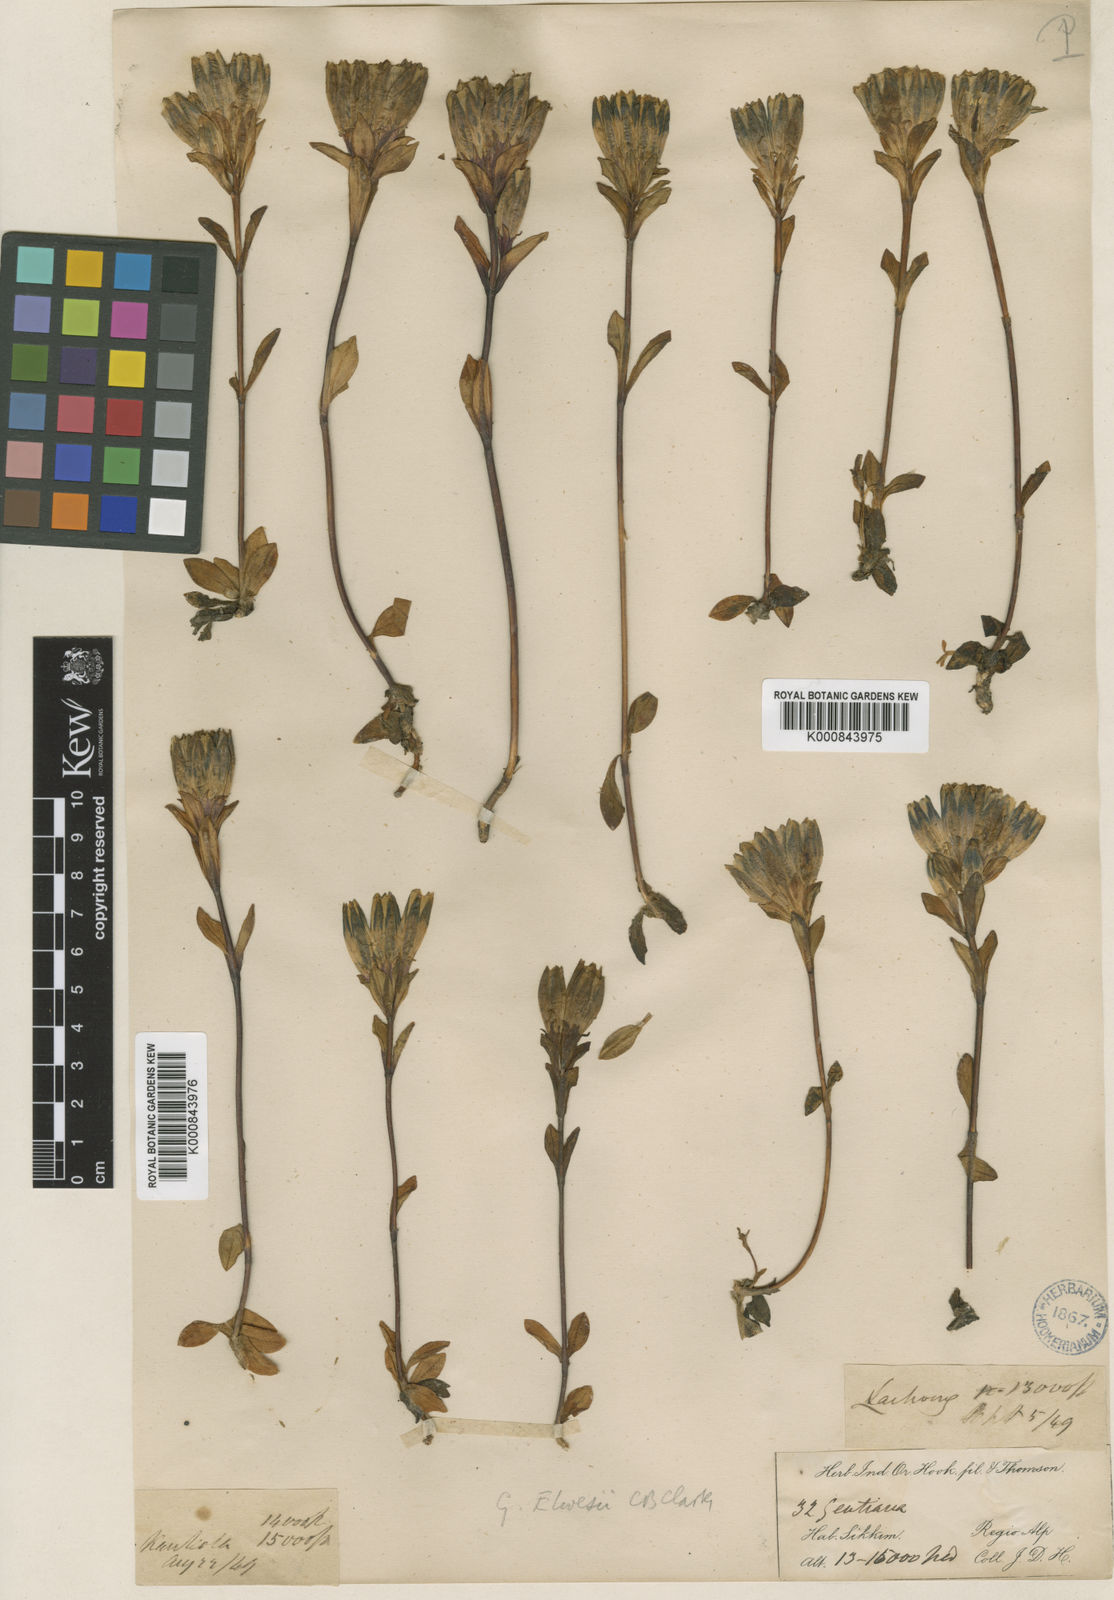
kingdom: Plantae
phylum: Tracheophyta
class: Magnoliopsida
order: Gentianales
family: Gentianaceae
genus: Gentiana
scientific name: Gentiana elwesii
